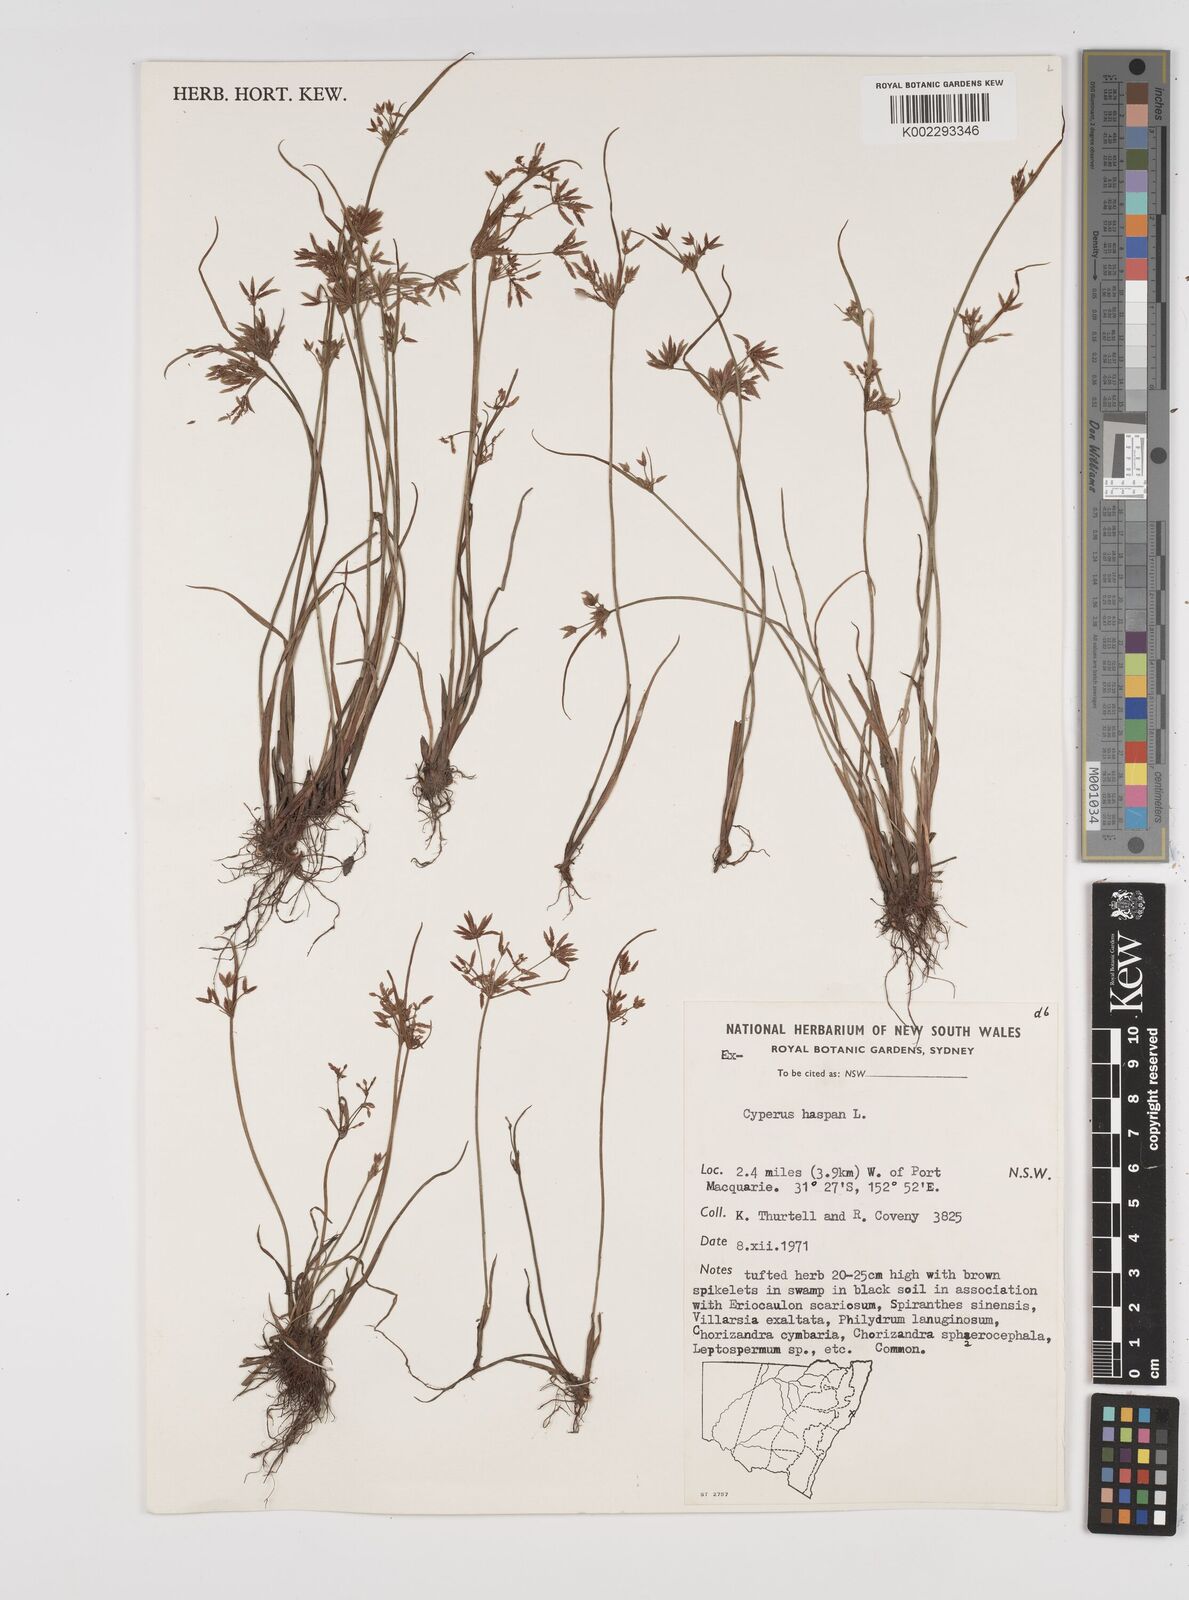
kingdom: Plantae
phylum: Tracheophyta
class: Liliopsida
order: Poales
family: Cyperaceae
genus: Cyperus
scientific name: Cyperus haspan
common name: Haspan flatsedge
